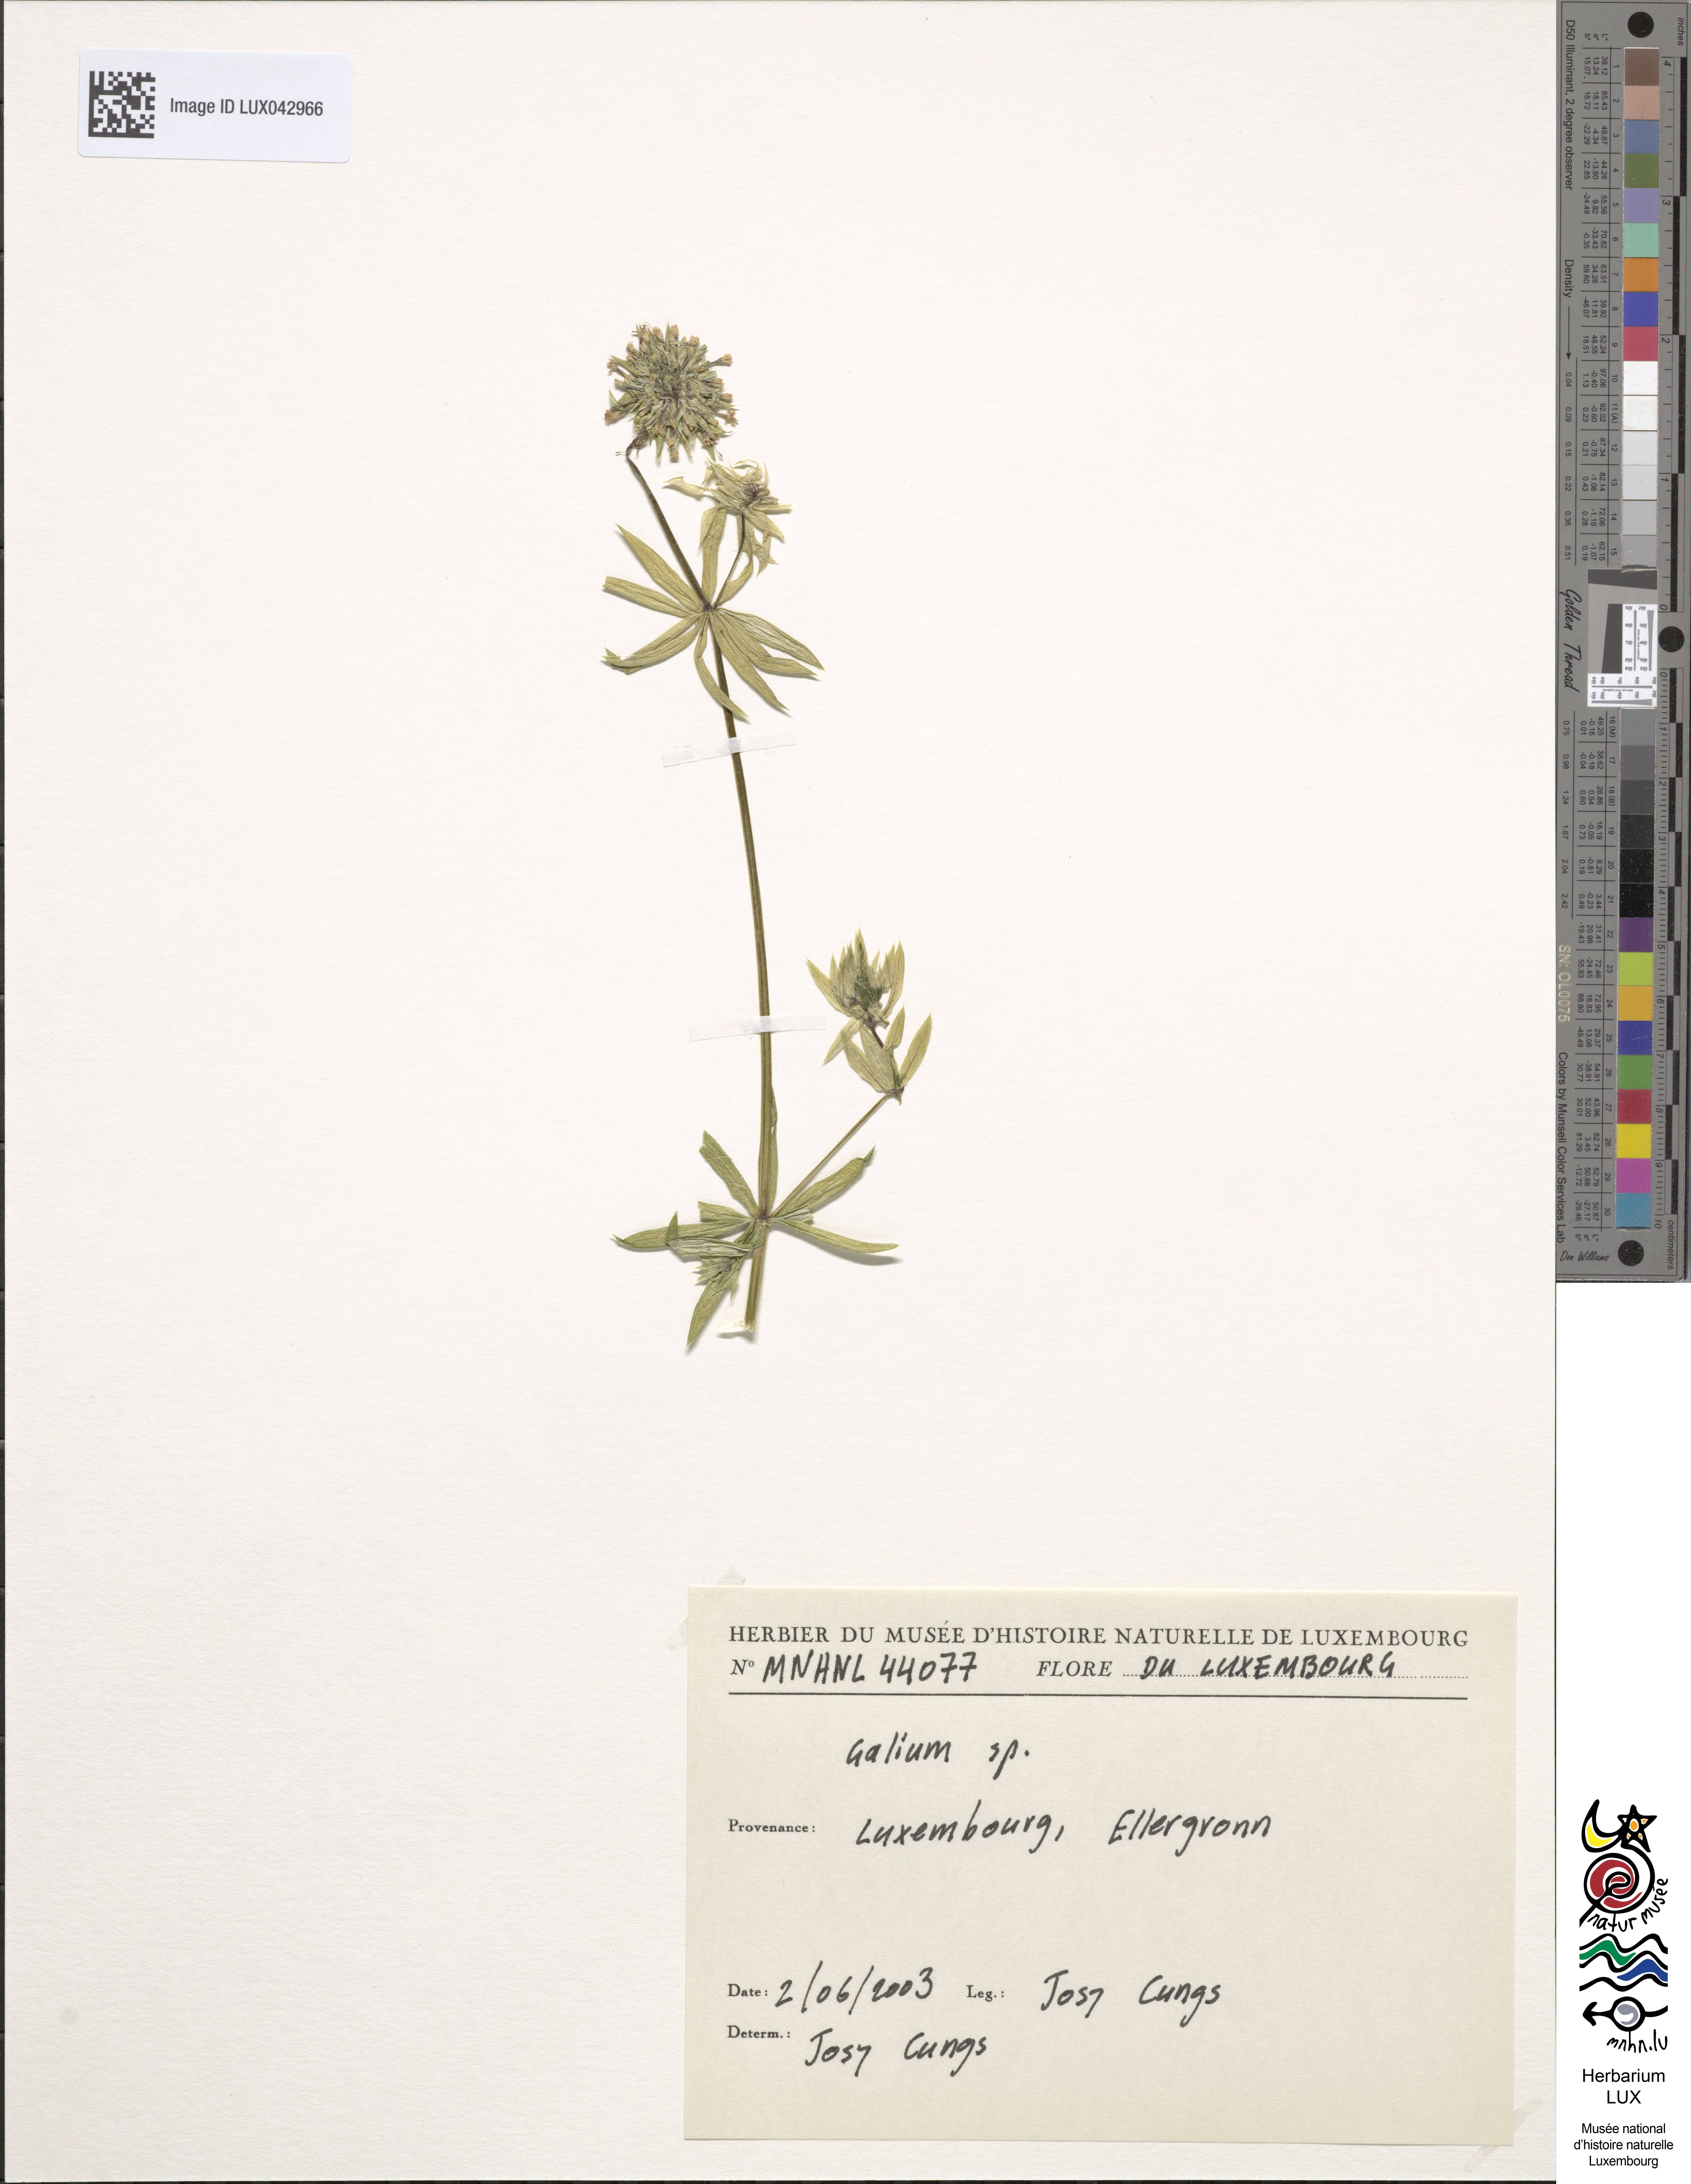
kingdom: Plantae
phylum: Tracheophyta
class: Magnoliopsida
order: Gentianales
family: Rubiaceae
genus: Galium
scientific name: Galium
